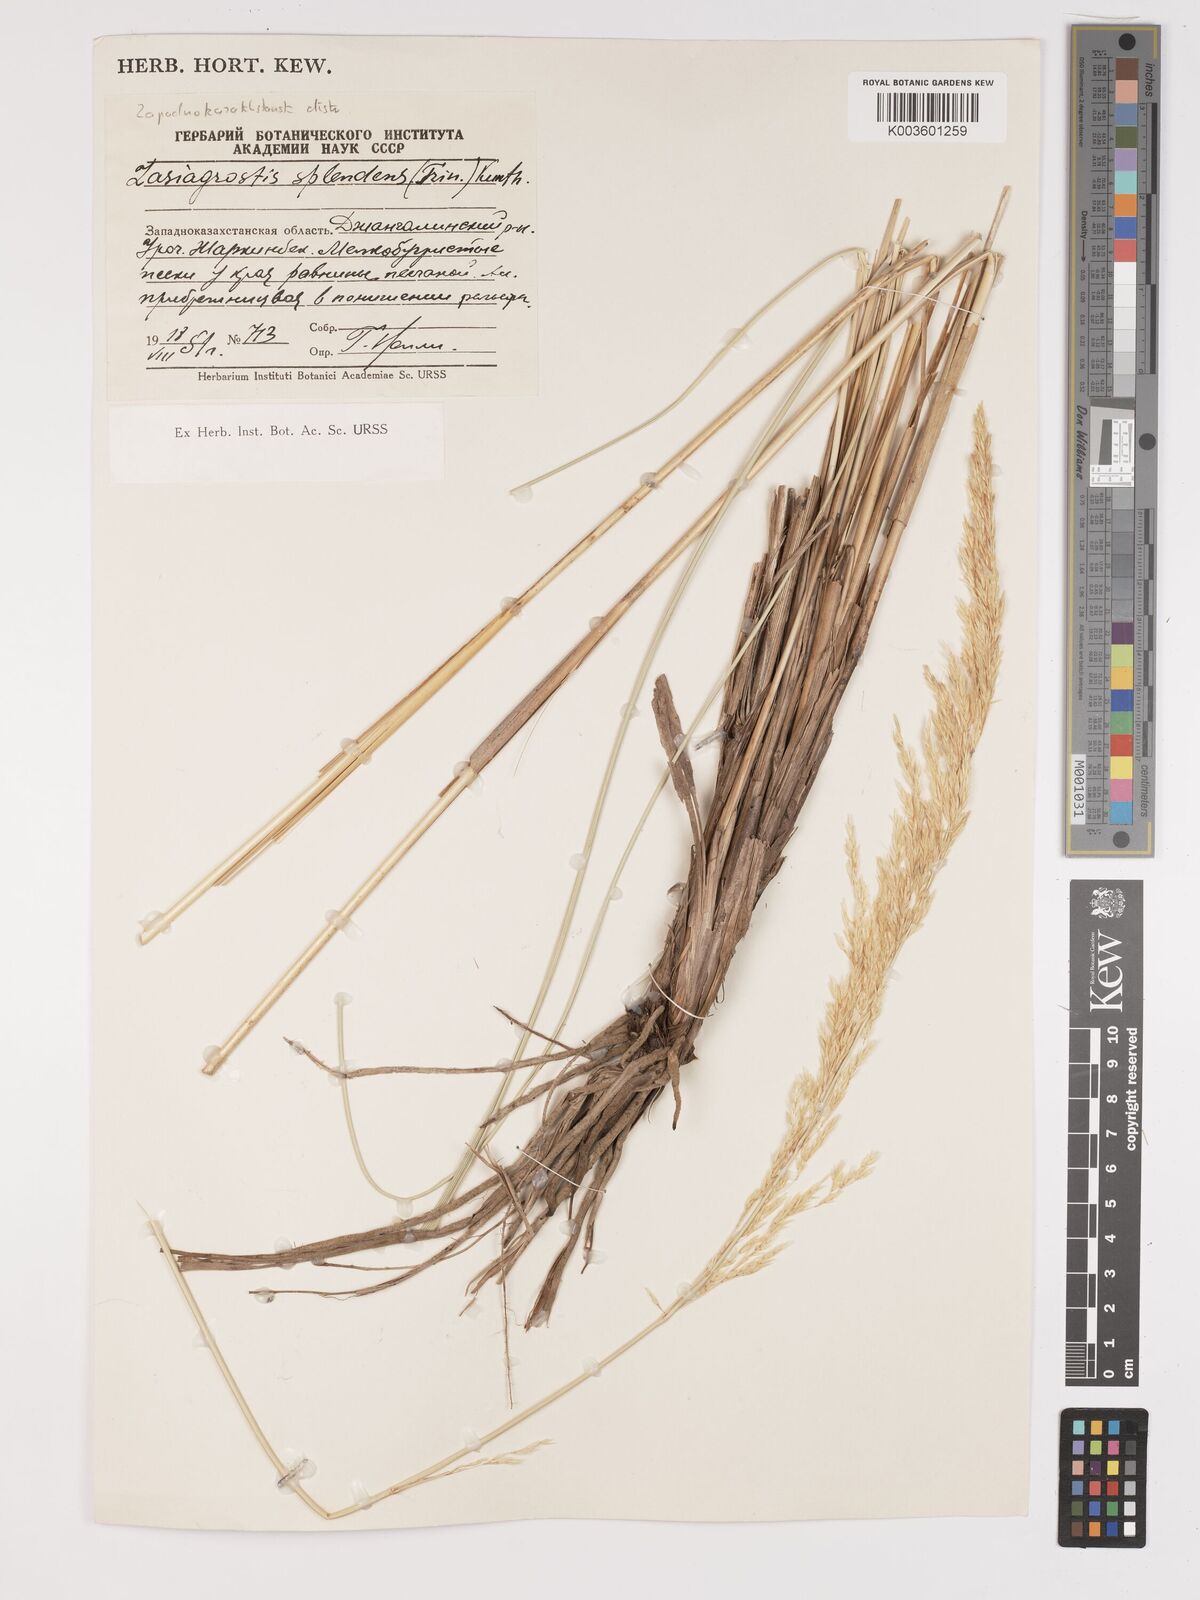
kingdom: Plantae
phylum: Tracheophyta
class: Liliopsida
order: Poales
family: Poaceae
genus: Neotrinia
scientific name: Neotrinia splendens
